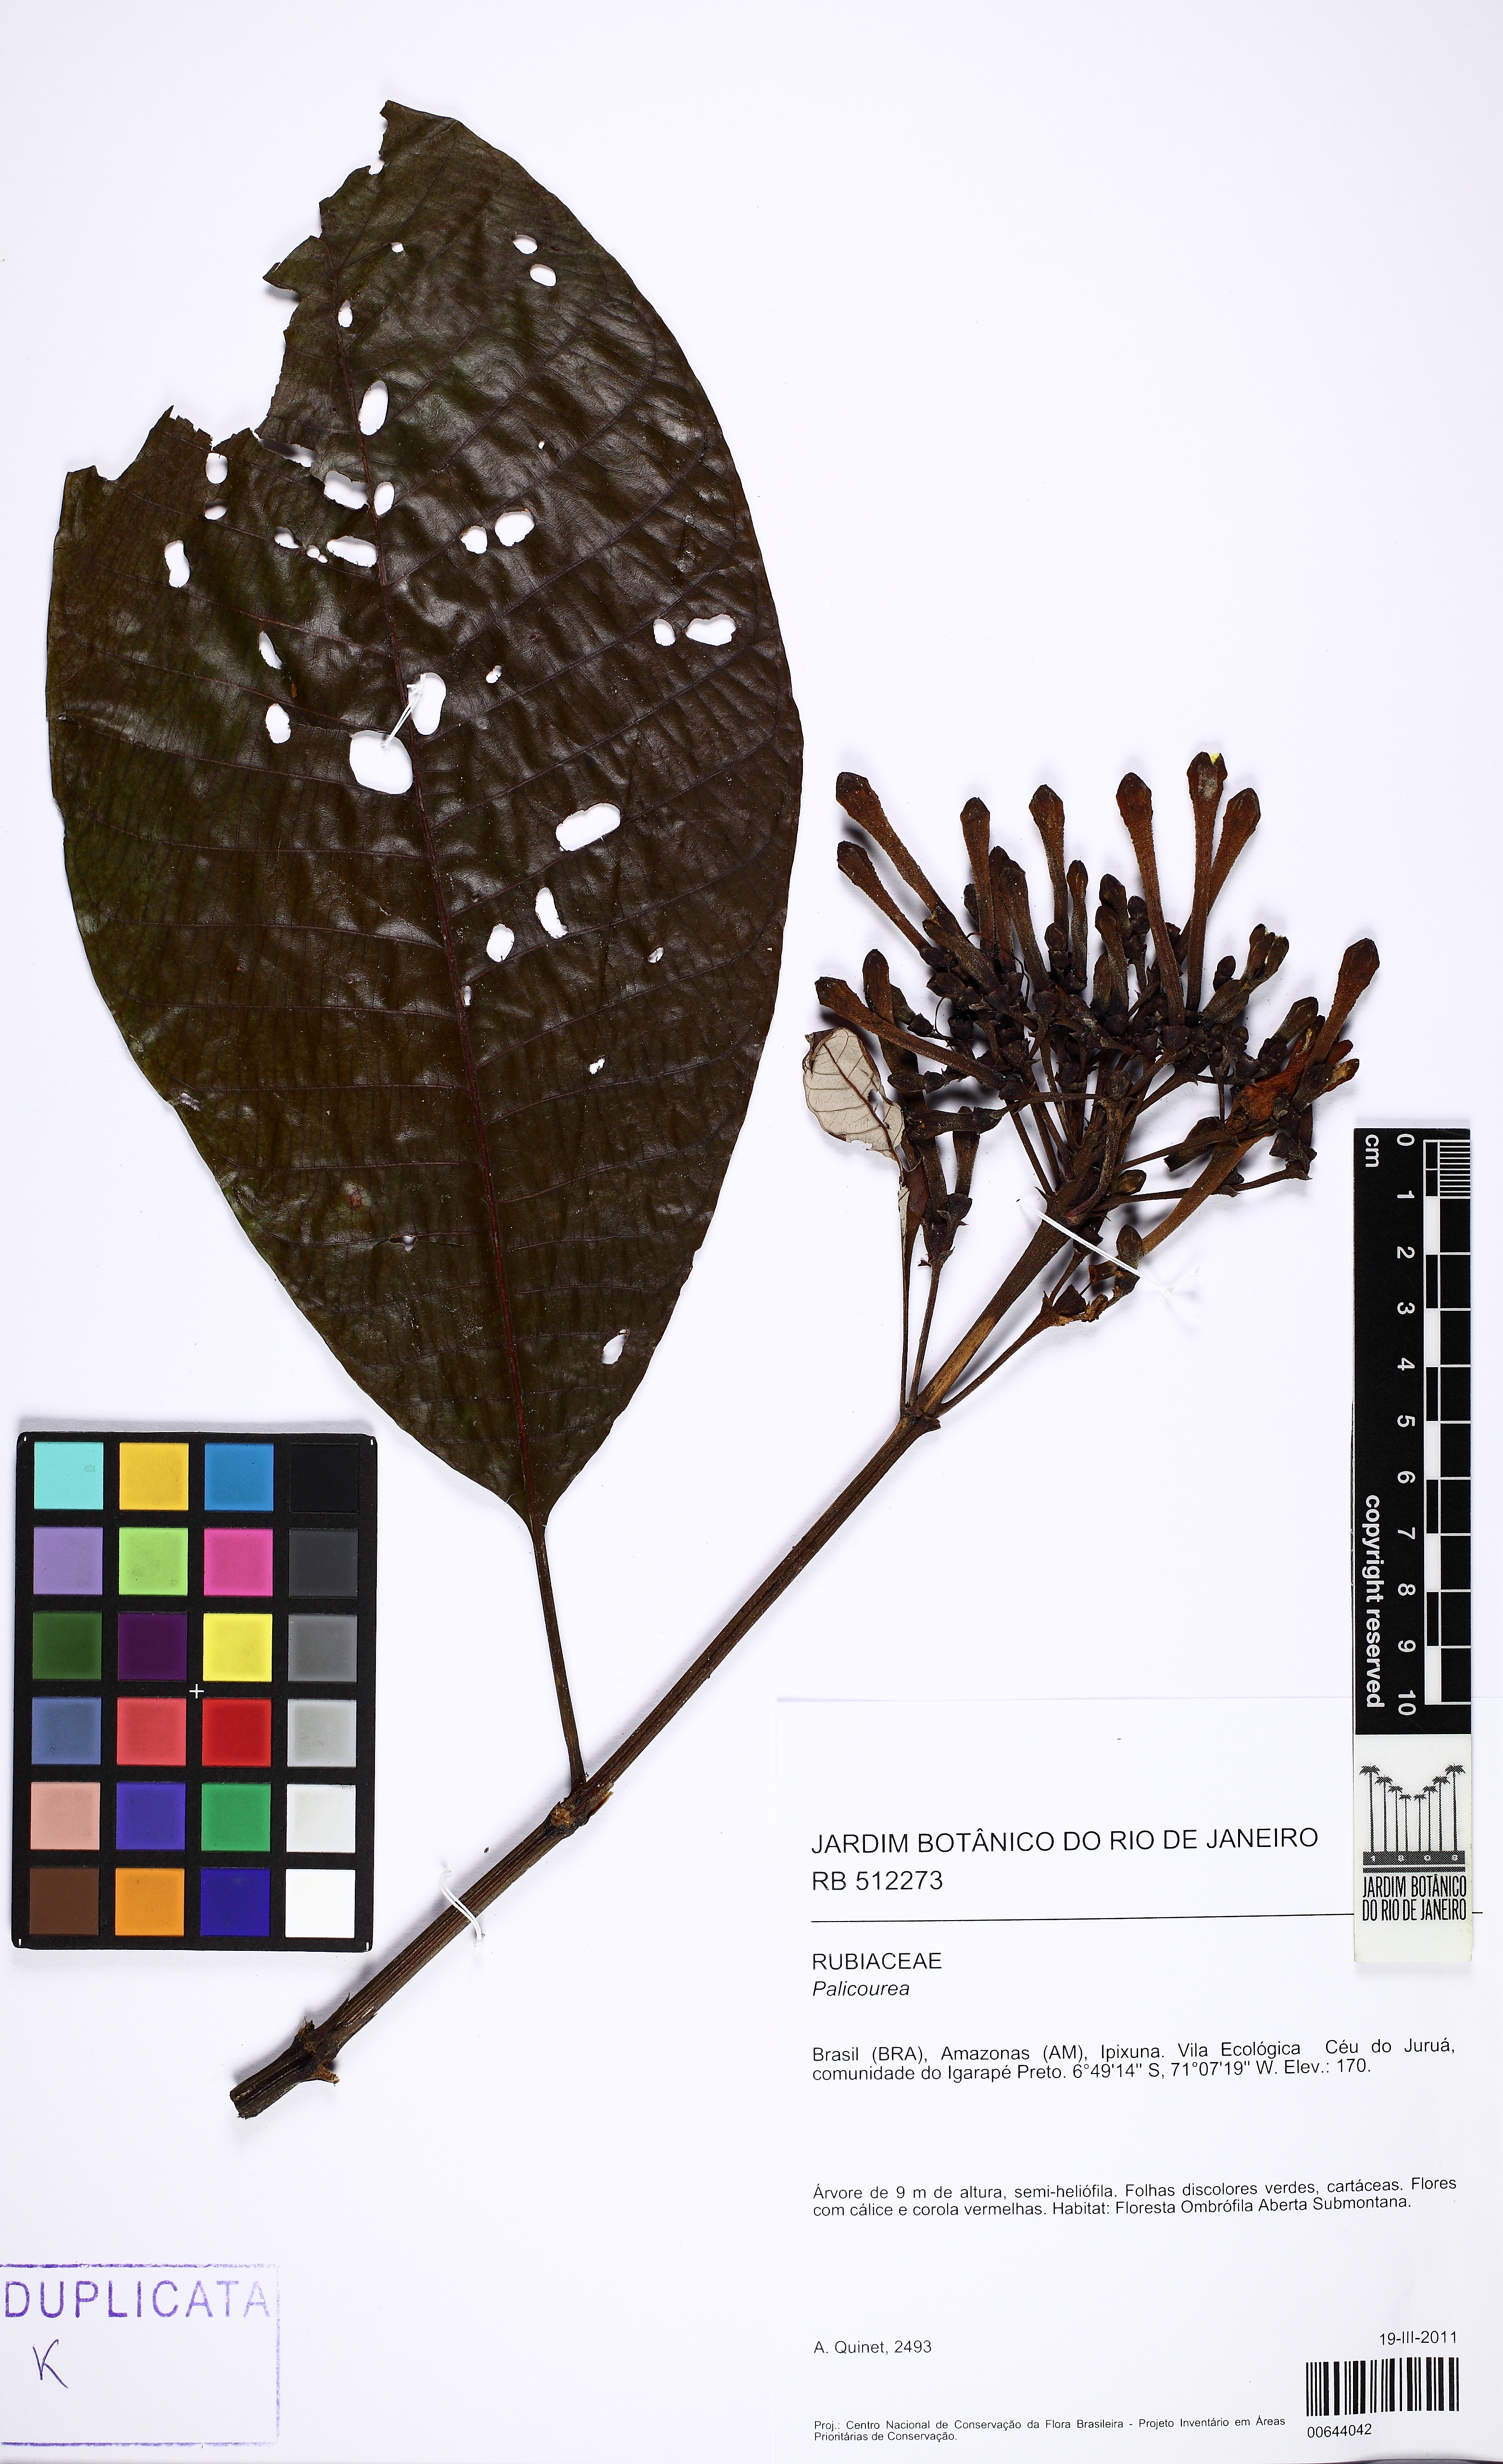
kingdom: Plantae
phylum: Tracheophyta
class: Magnoliopsida
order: Gentianales
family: Rubiaceae
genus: Isertia
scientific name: Isertia hypoleuca
